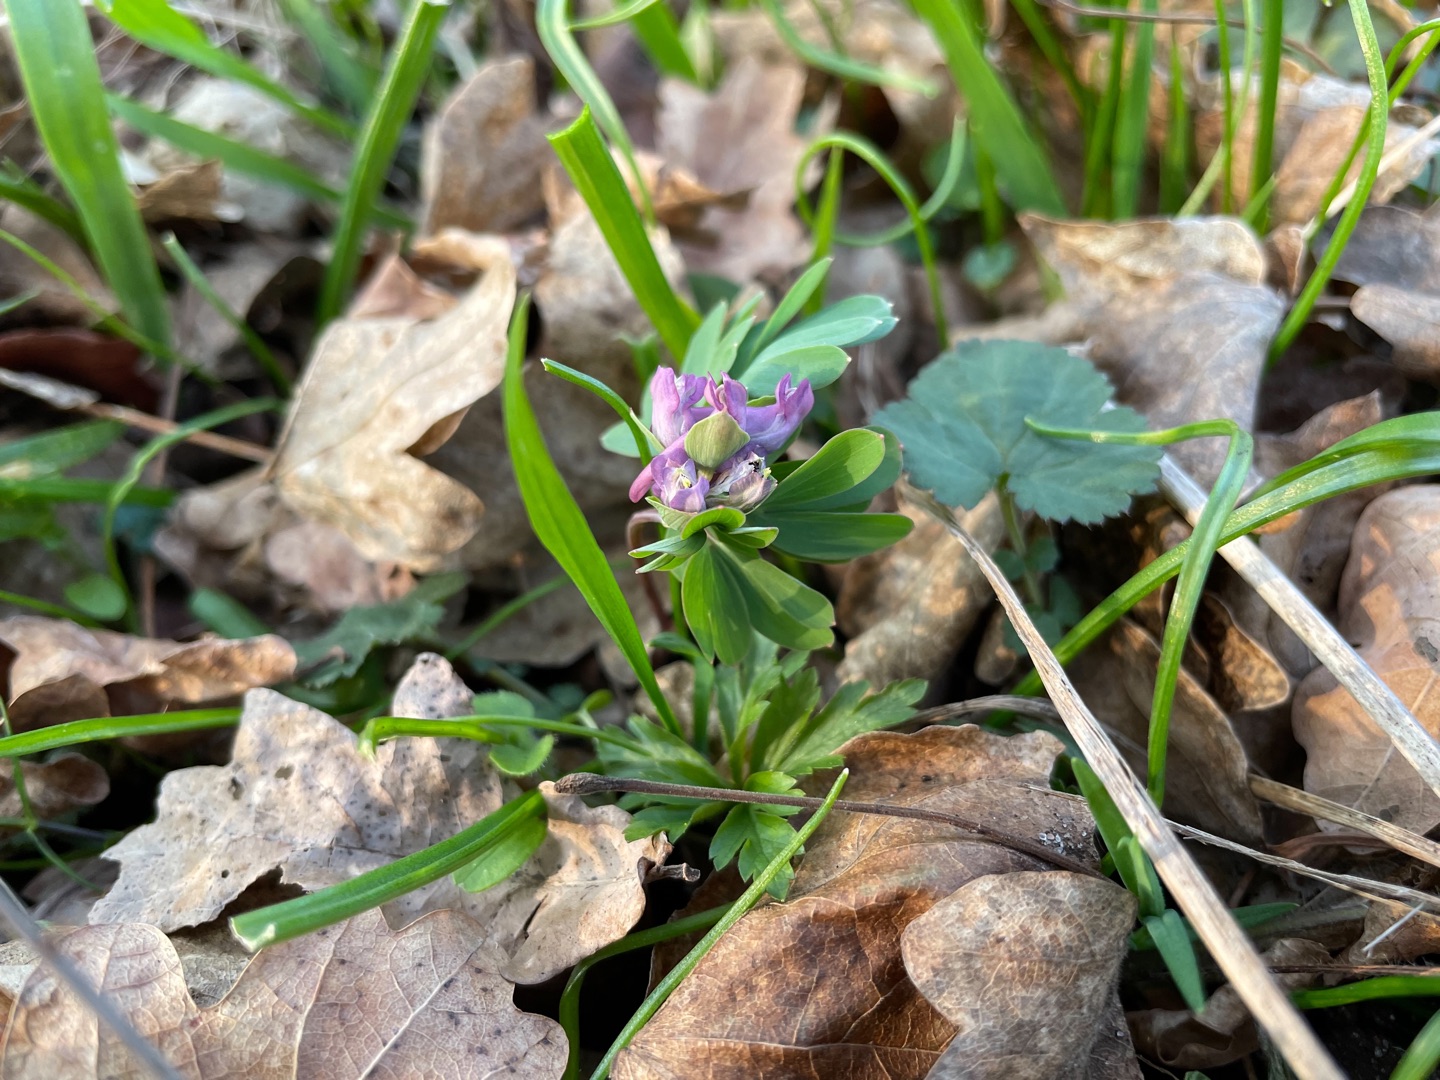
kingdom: Plantae
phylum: Tracheophyta
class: Magnoliopsida
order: Ranunculales
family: Papaveraceae
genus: Corydalis
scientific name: Corydalis intermedia
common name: Liden lærkespore
